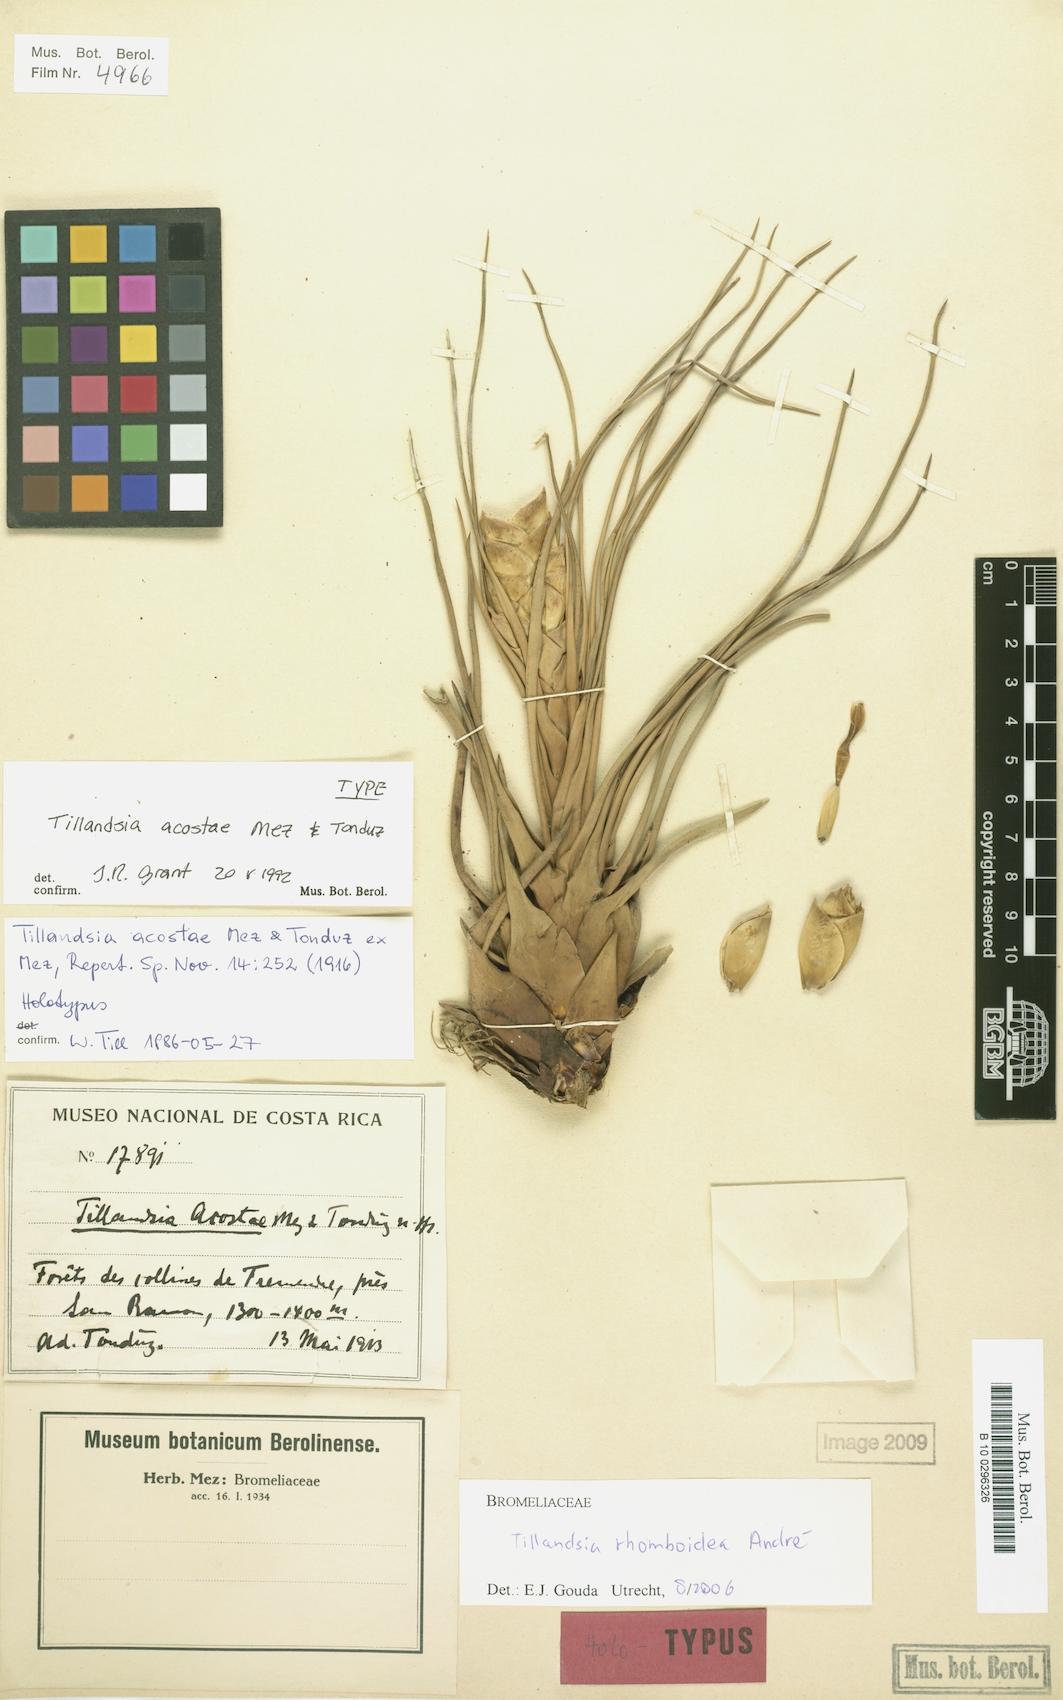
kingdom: Plantae
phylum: Tracheophyta
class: Liliopsida
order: Poales
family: Bromeliaceae
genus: Tillandsia
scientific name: Tillandsia rhomboidea
